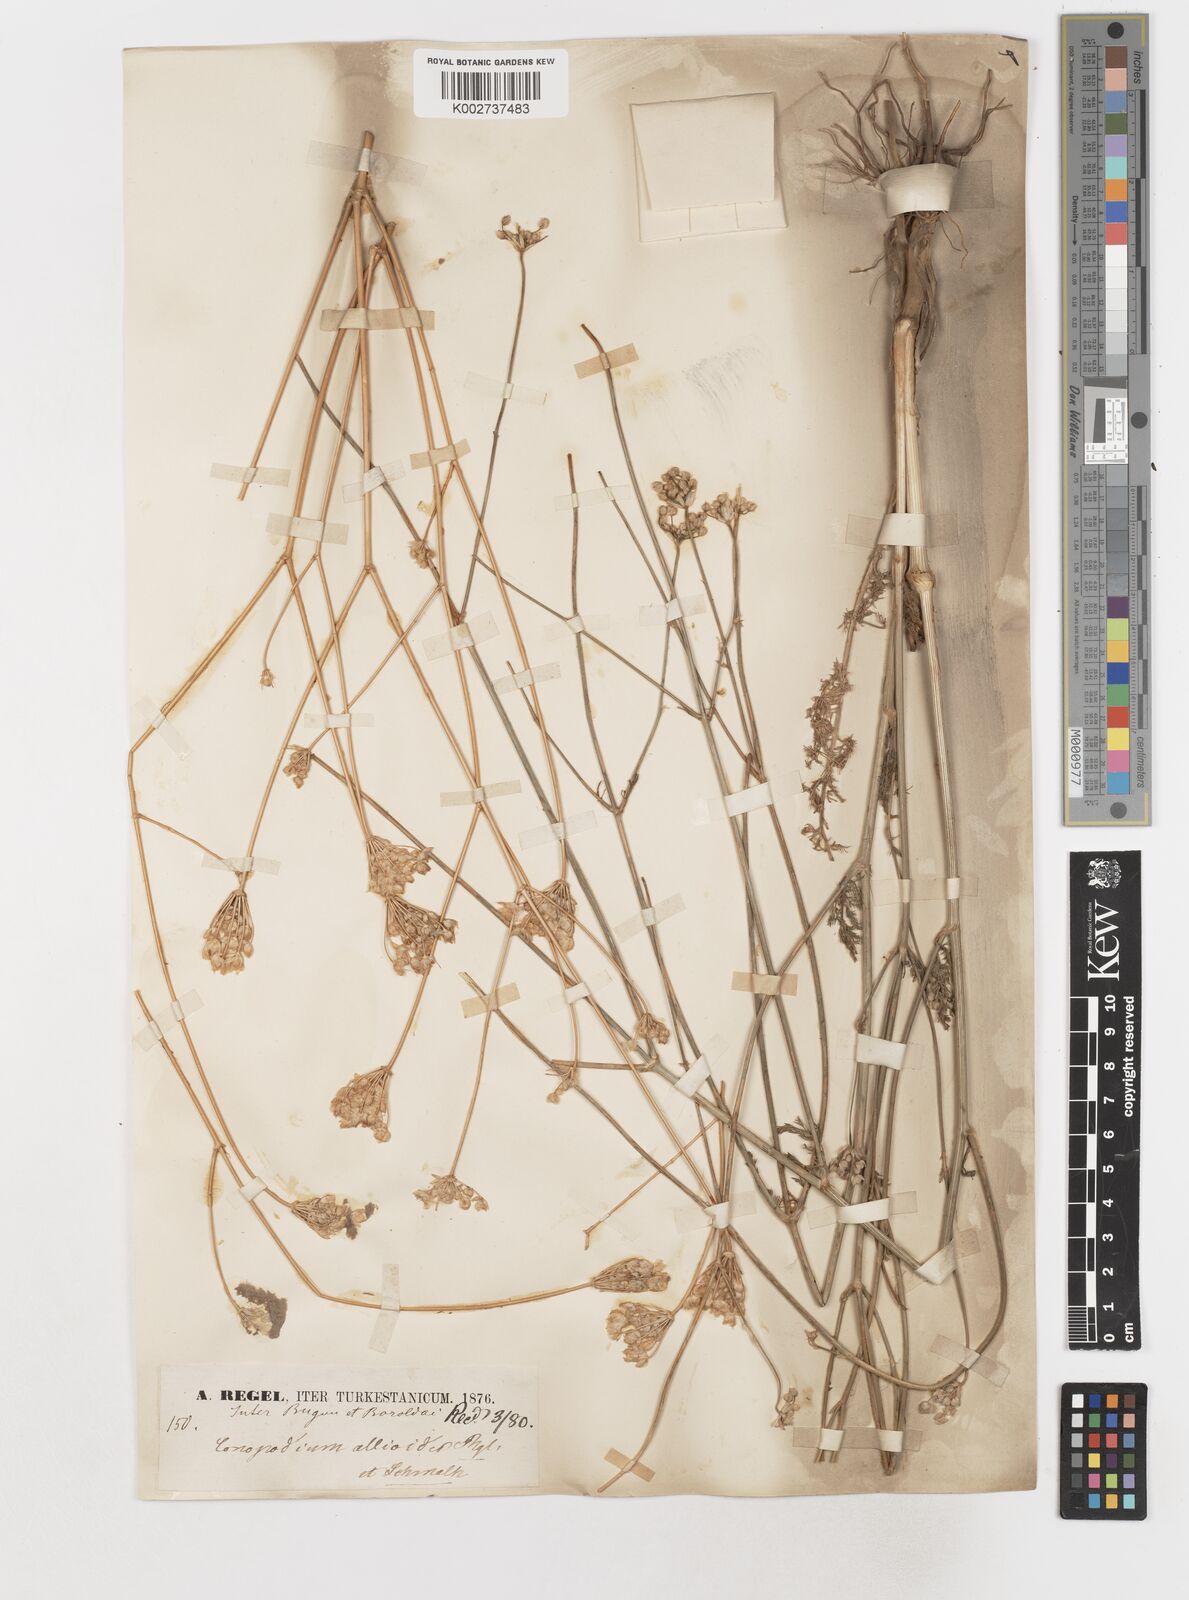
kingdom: Plantae
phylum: Tracheophyta
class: Magnoliopsida
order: Apiales
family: Apiaceae
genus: Scaligeria
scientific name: Scaligeria allioides
